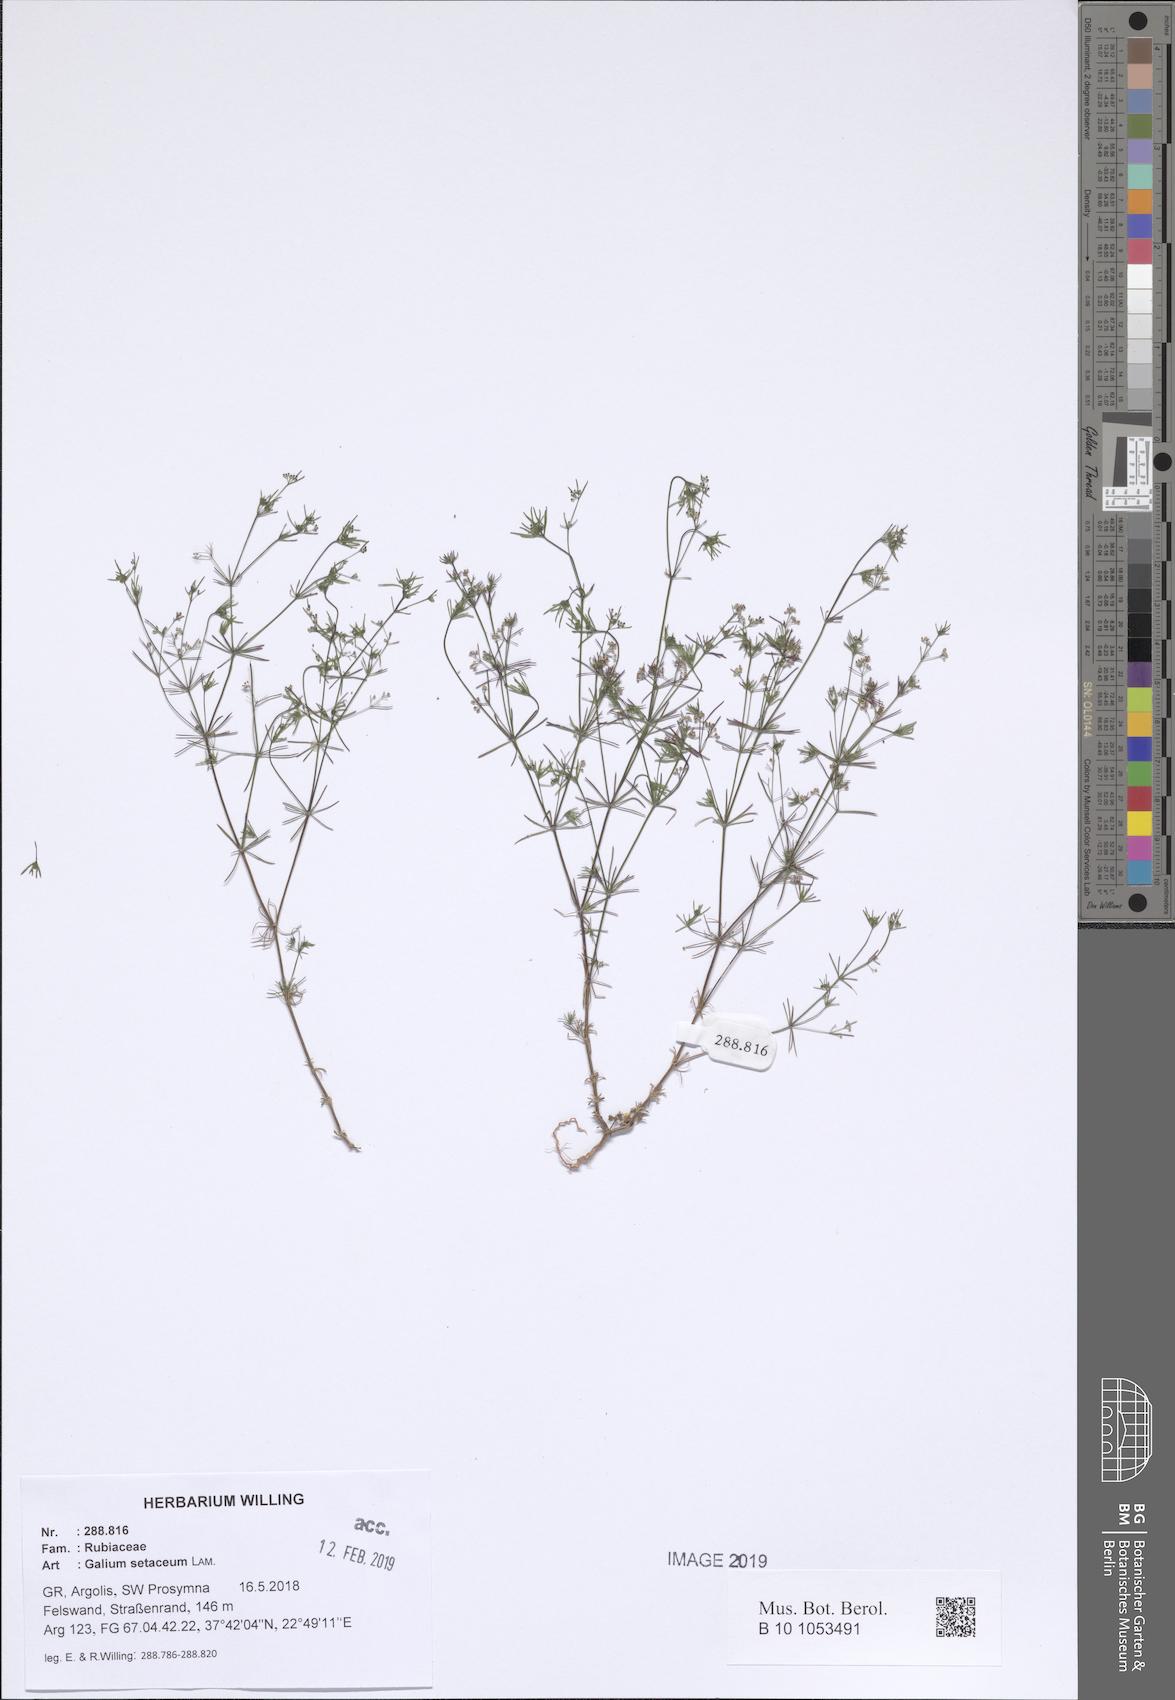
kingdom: Plantae
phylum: Tracheophyta
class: Magnoliopsida
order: Gentianales
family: Rubiaceae
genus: Galium
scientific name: Galium setaceum
